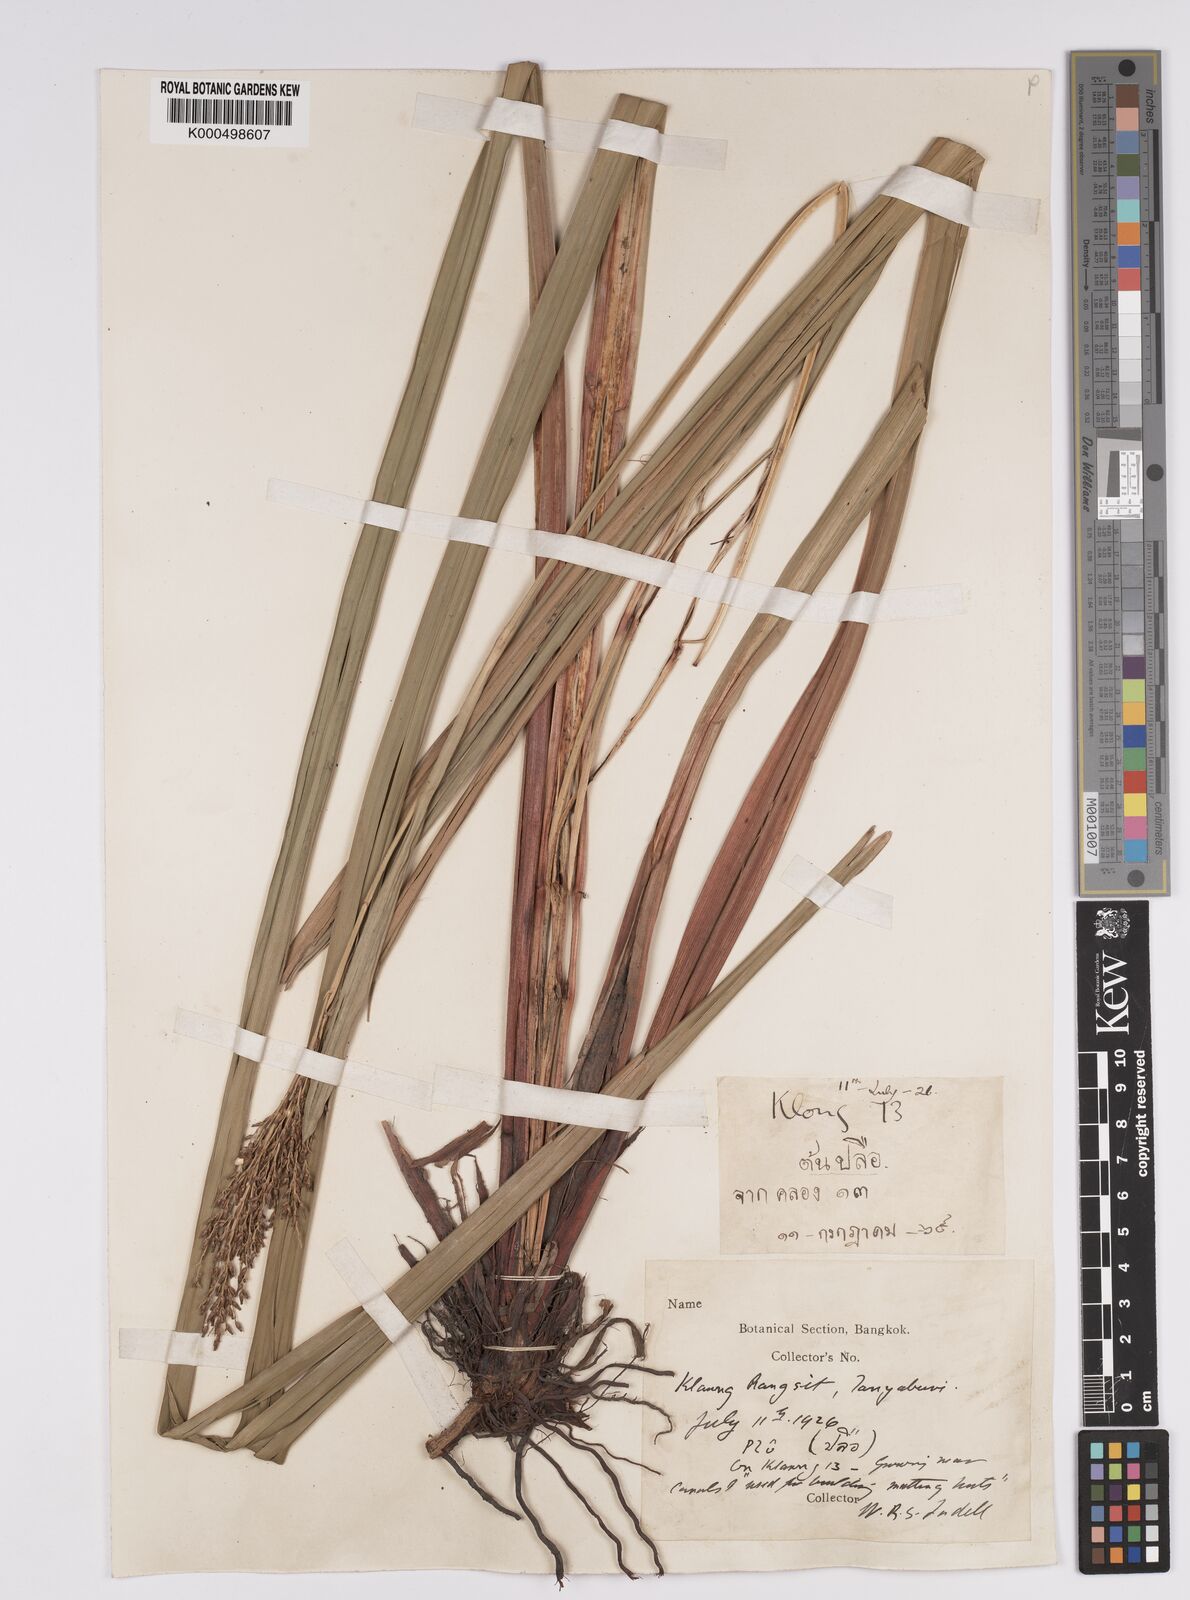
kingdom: Plantae
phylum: Tracheophyta
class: Liliopsida
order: Poales
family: Cyperaceae
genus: Scleria
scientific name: Scleria poiformis
